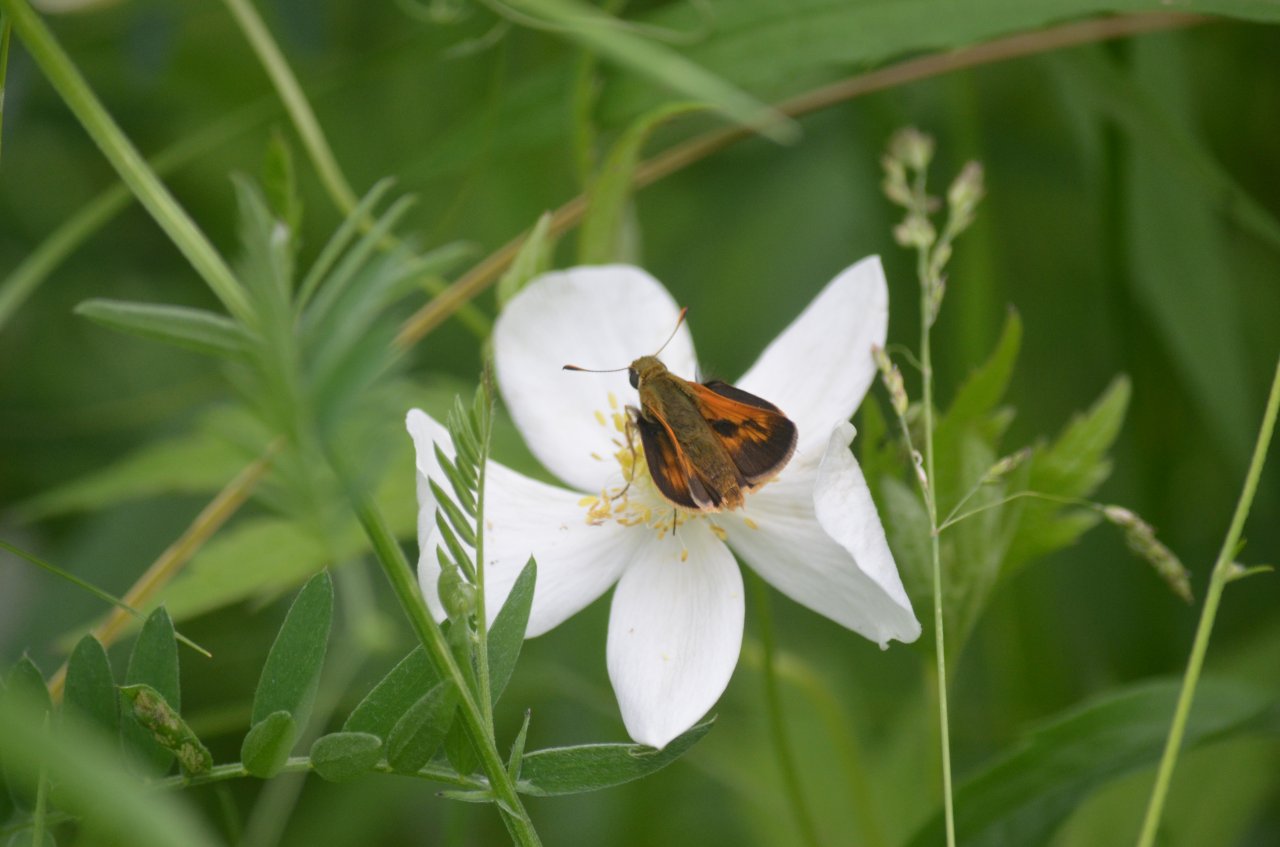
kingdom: Animalia
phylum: Arthropoda
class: Insecta
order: Lepidoptera
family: Hesperiidae
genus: Polites
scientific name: Polites
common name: Long Dash Skipper
